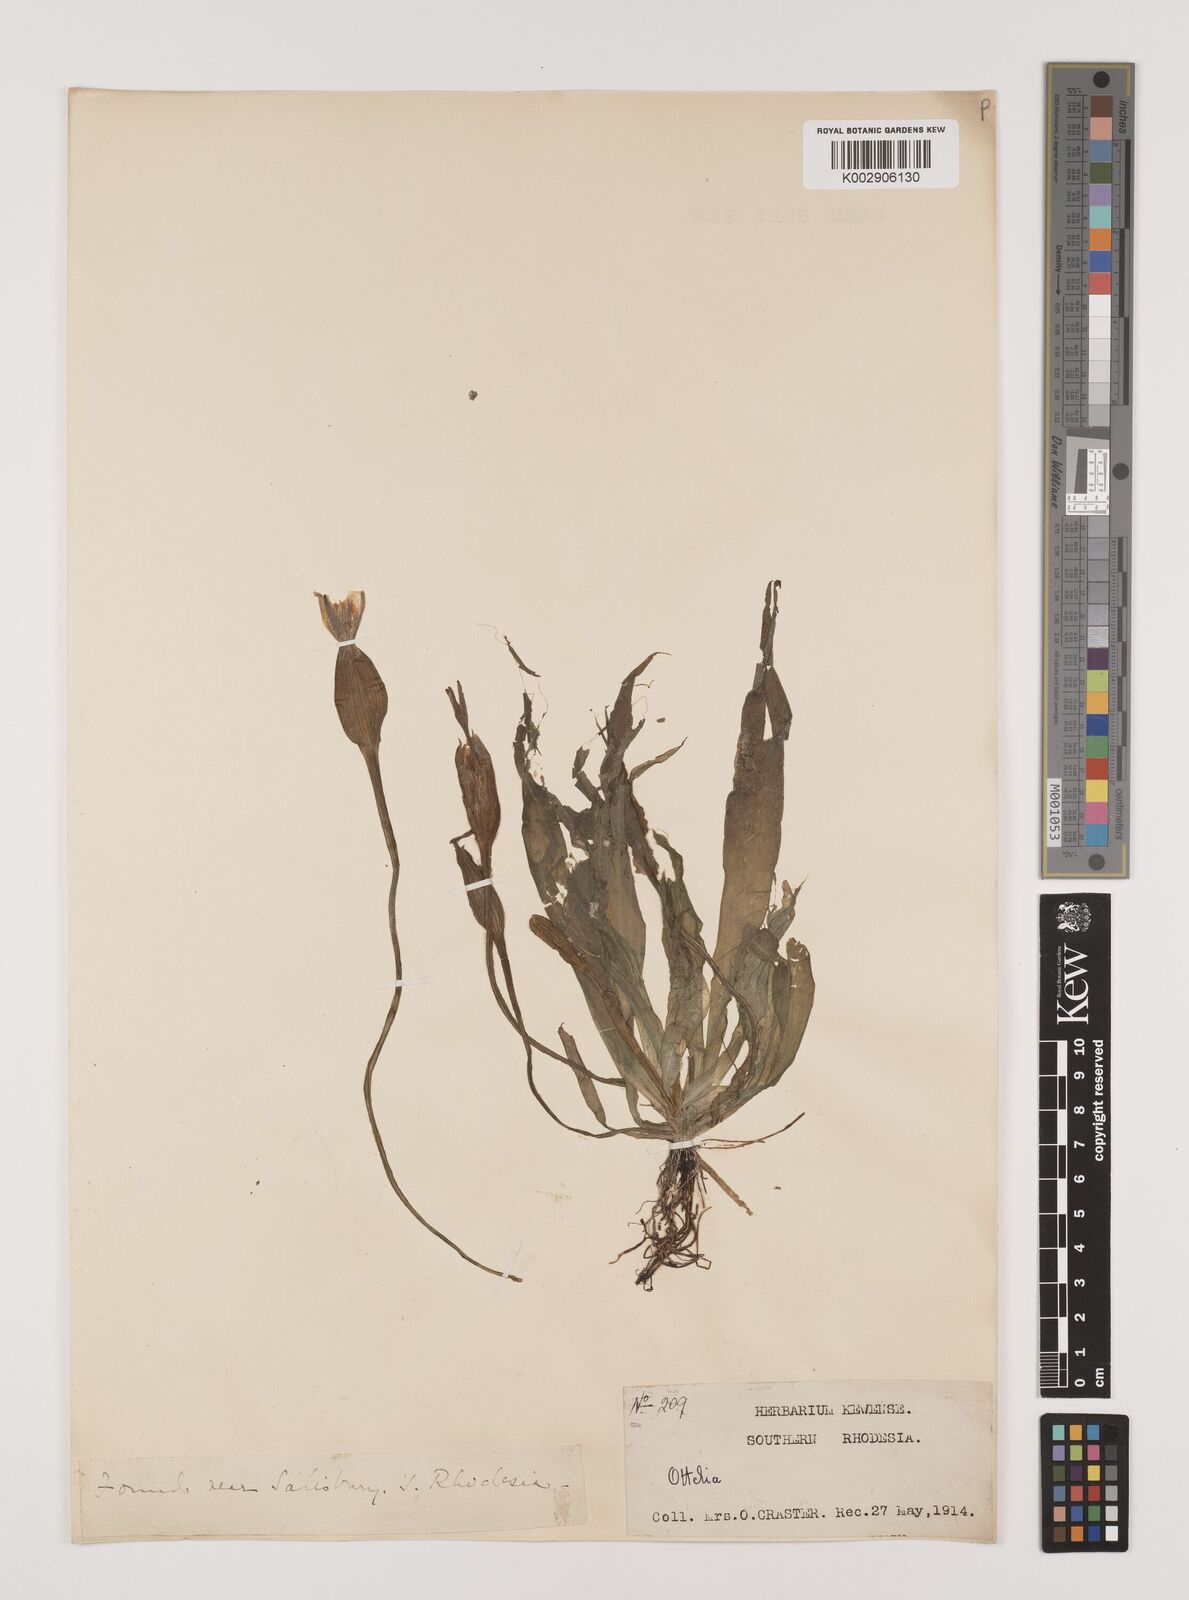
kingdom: Plantae
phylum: Tracheophyta
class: Liliopsida
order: Alismatales
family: Hydrocharitaceae
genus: Ottelia
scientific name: Ottelia ulvifolia
